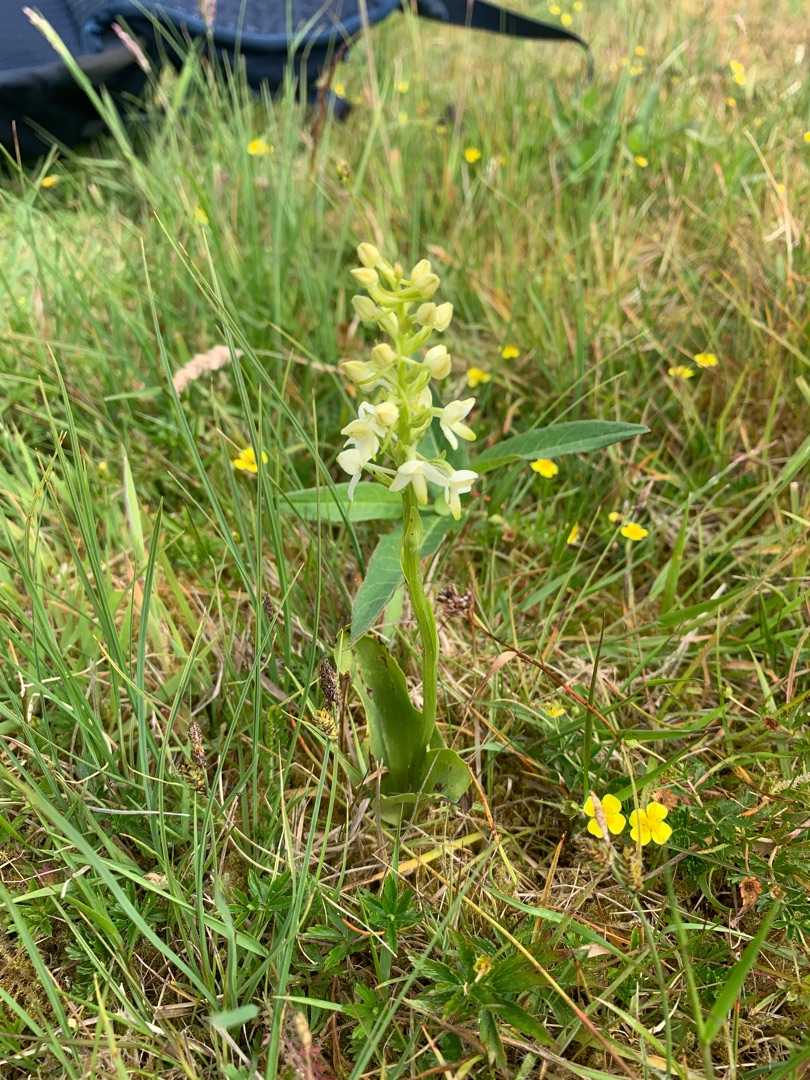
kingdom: Plantae
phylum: Tracheophyta
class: Liliopsida
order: Asparagales
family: Orchidaceae
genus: Platanthera
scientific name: Platanthera bifolia
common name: Bakke-gøgelilje
